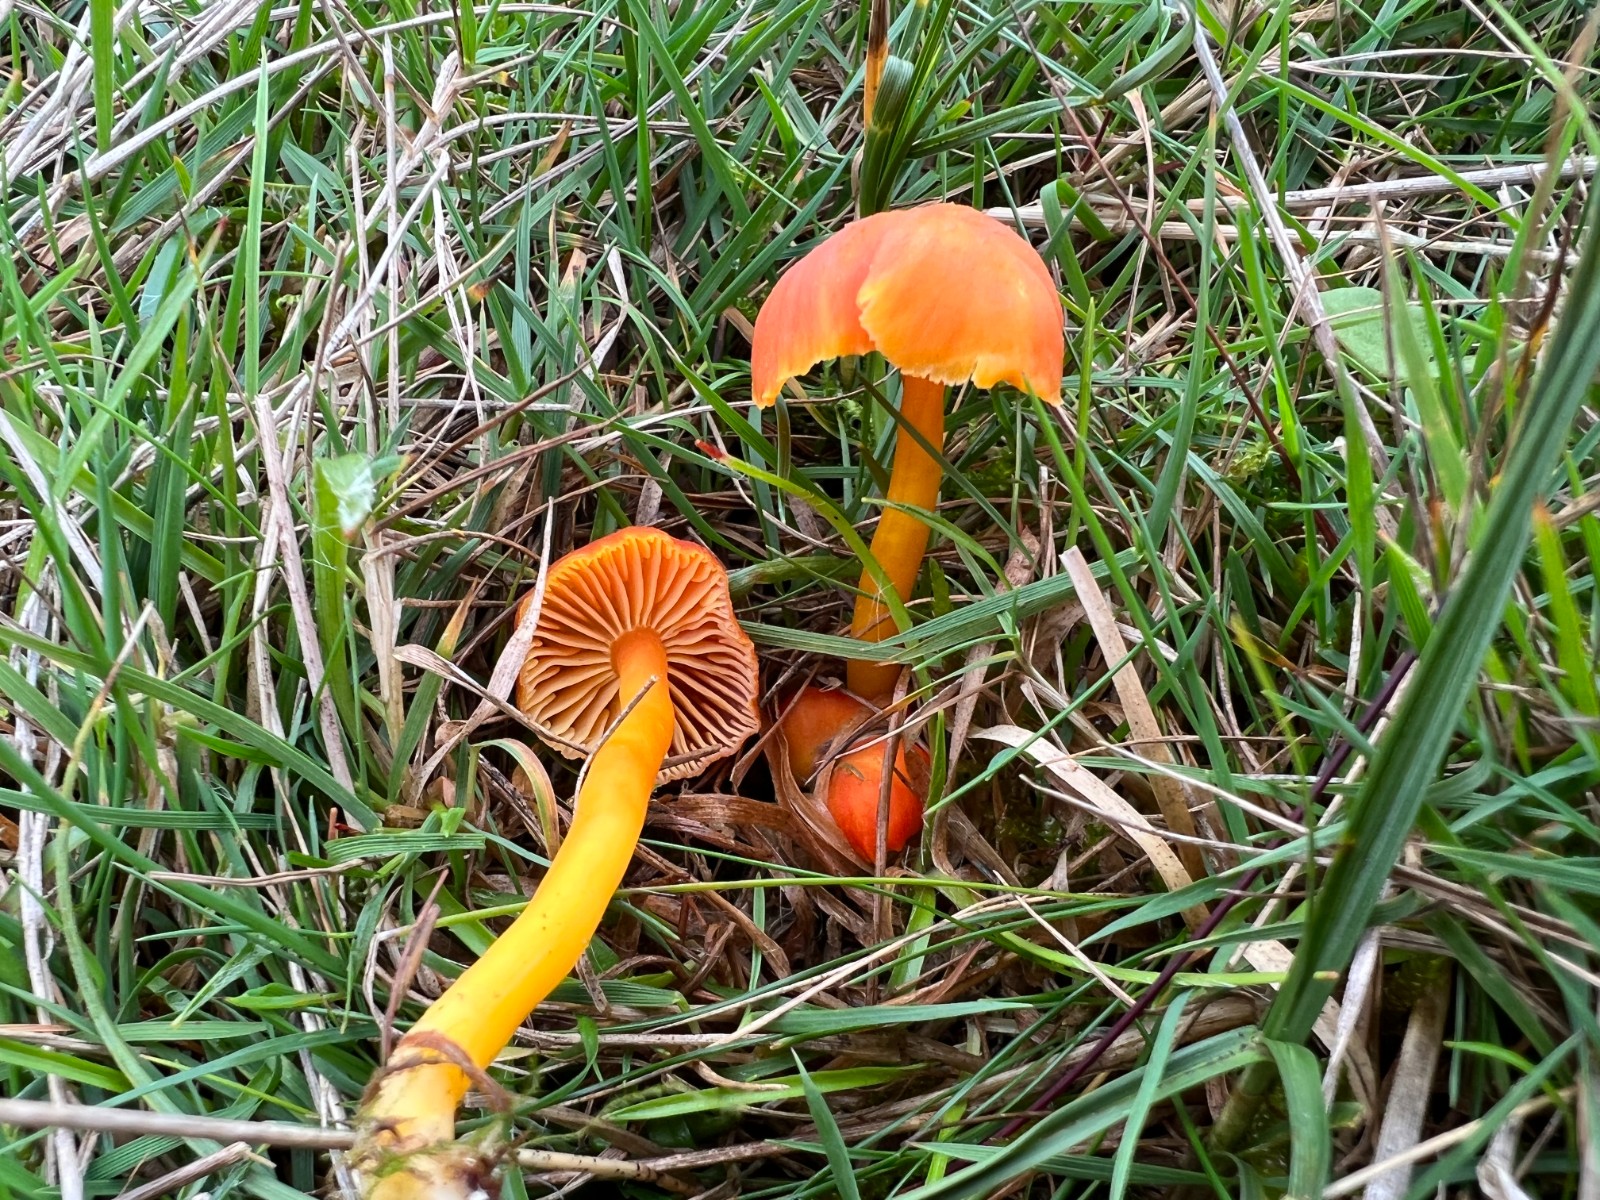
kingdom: Fungi
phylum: Basidiomycota
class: Agaricomycetes
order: Agaricales
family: Hygrophoraceae
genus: Hygrocybe
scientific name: Hygrocybe miniata
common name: mønje-vokshat
